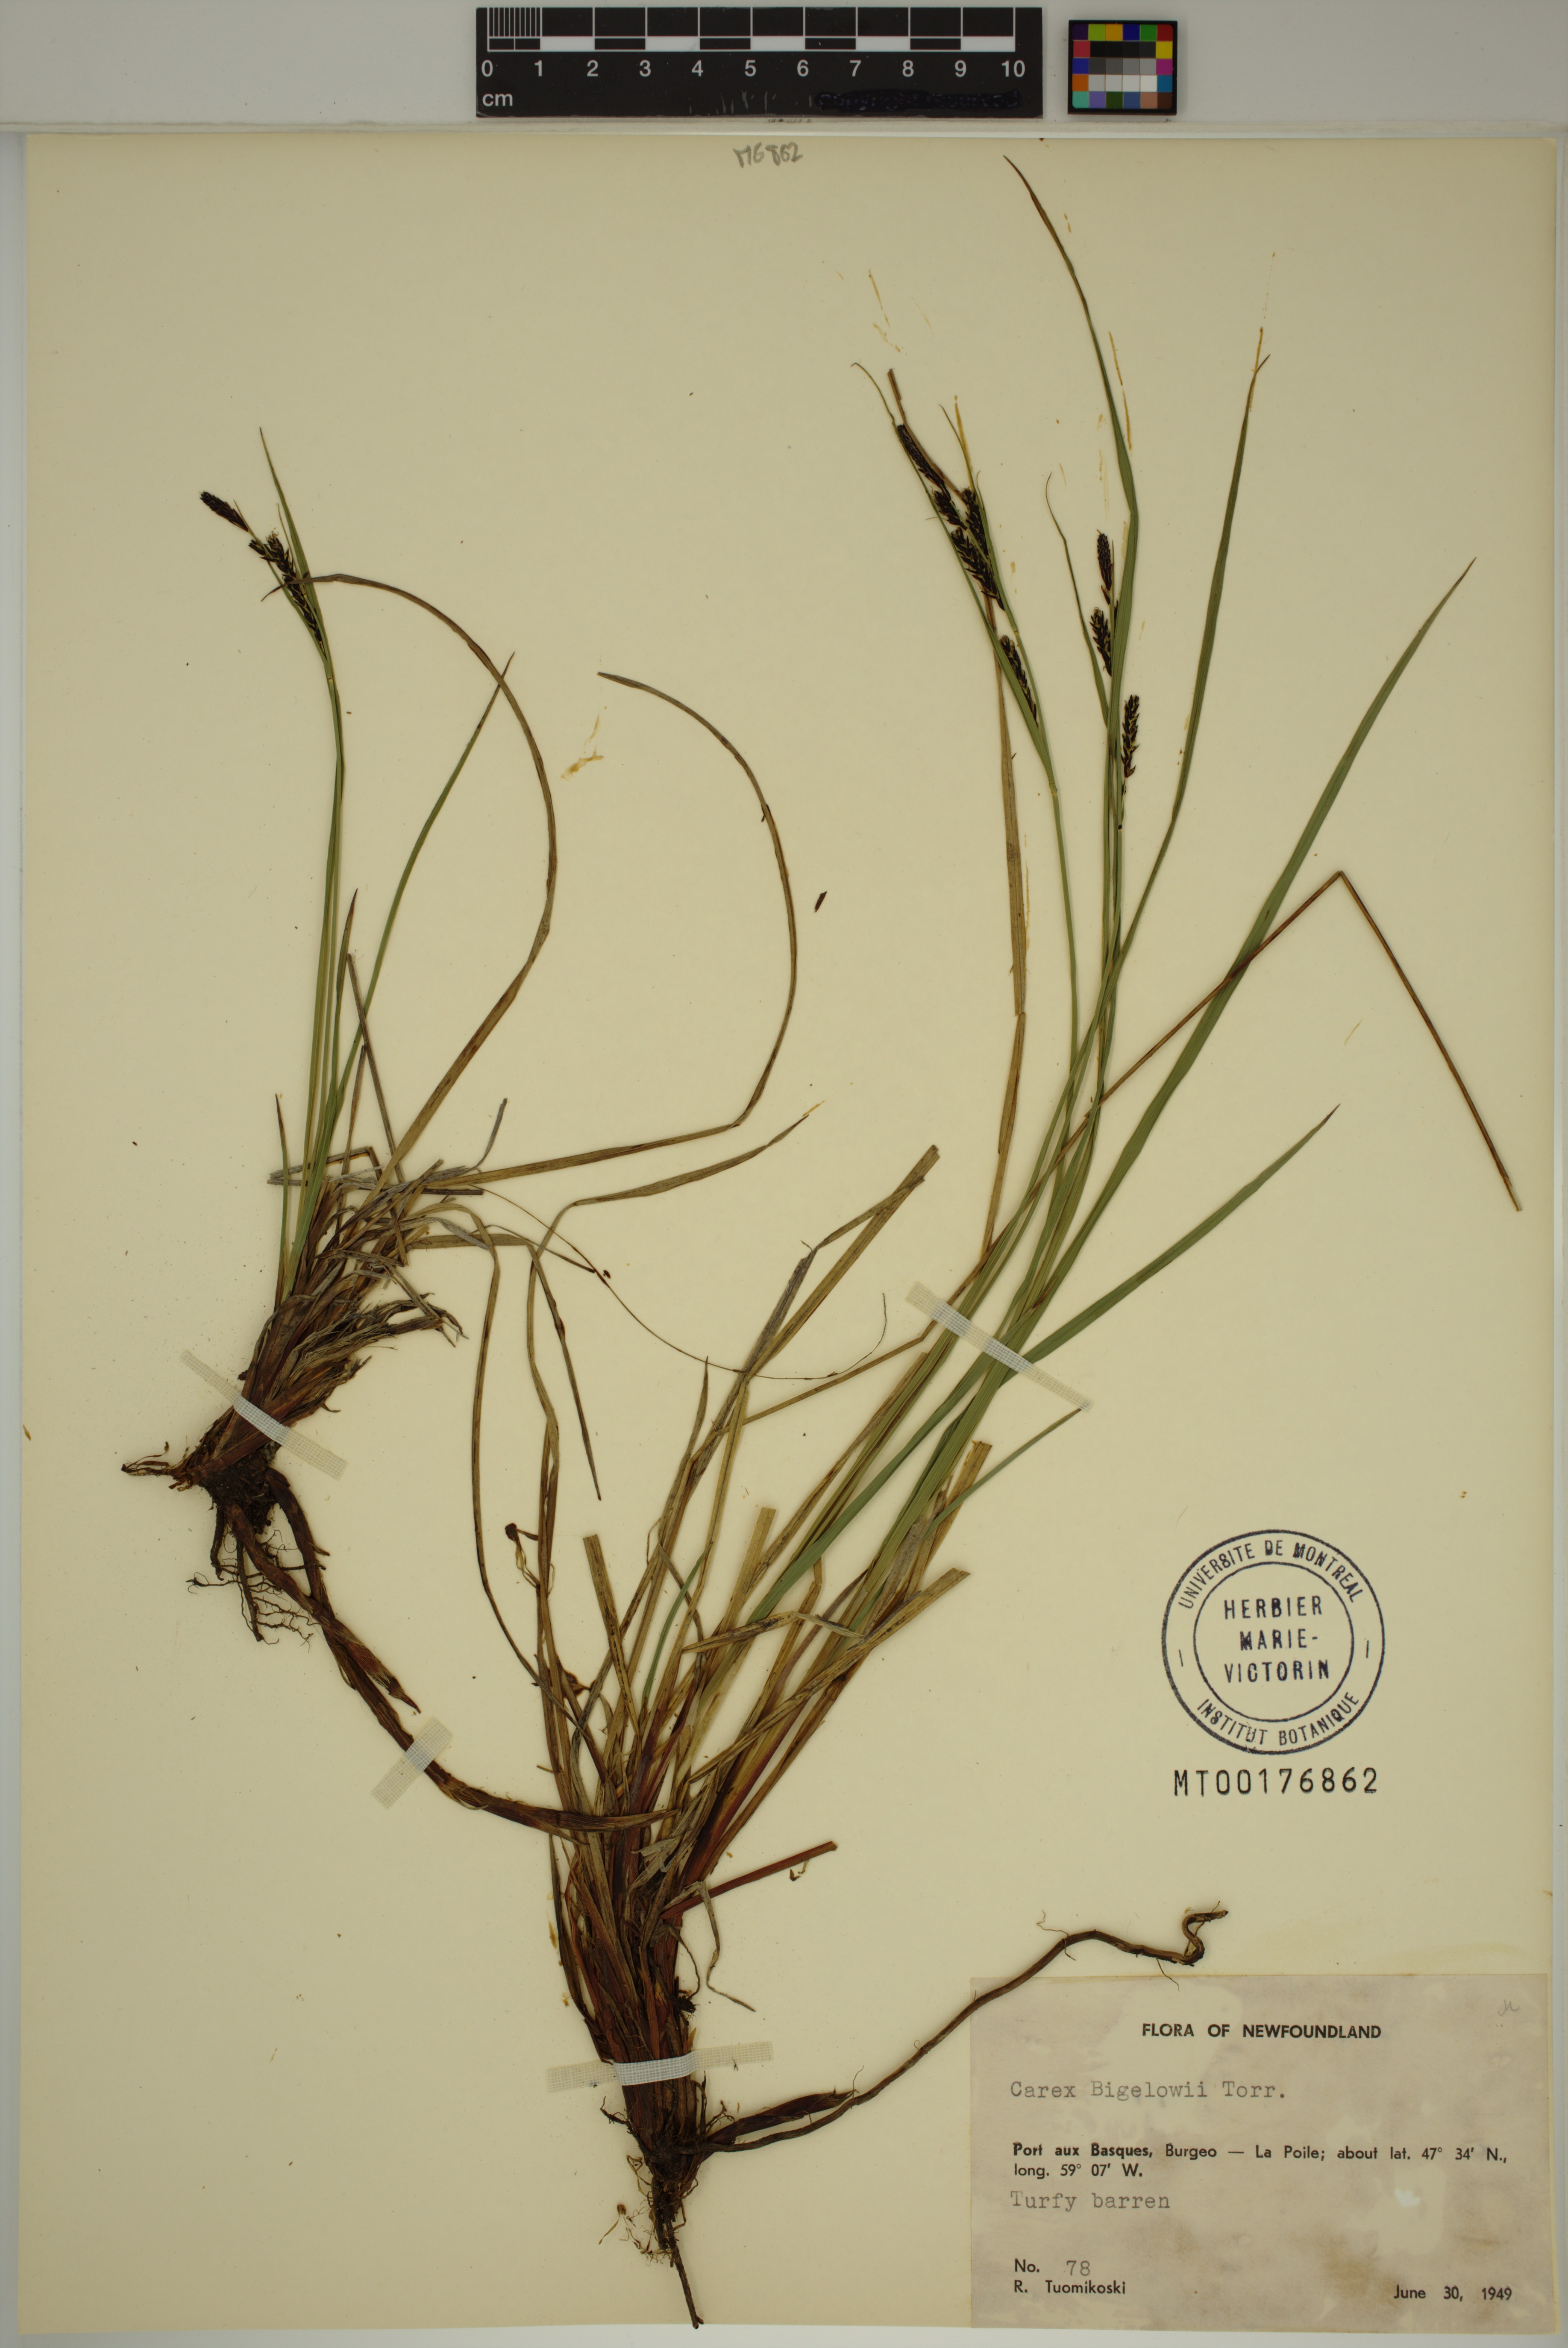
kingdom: Plantae
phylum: Tracheophyta
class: Liliopsida
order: Poales
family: Cyperaceae
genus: Carex
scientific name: Carex bigelowii
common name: Stiff sedge
